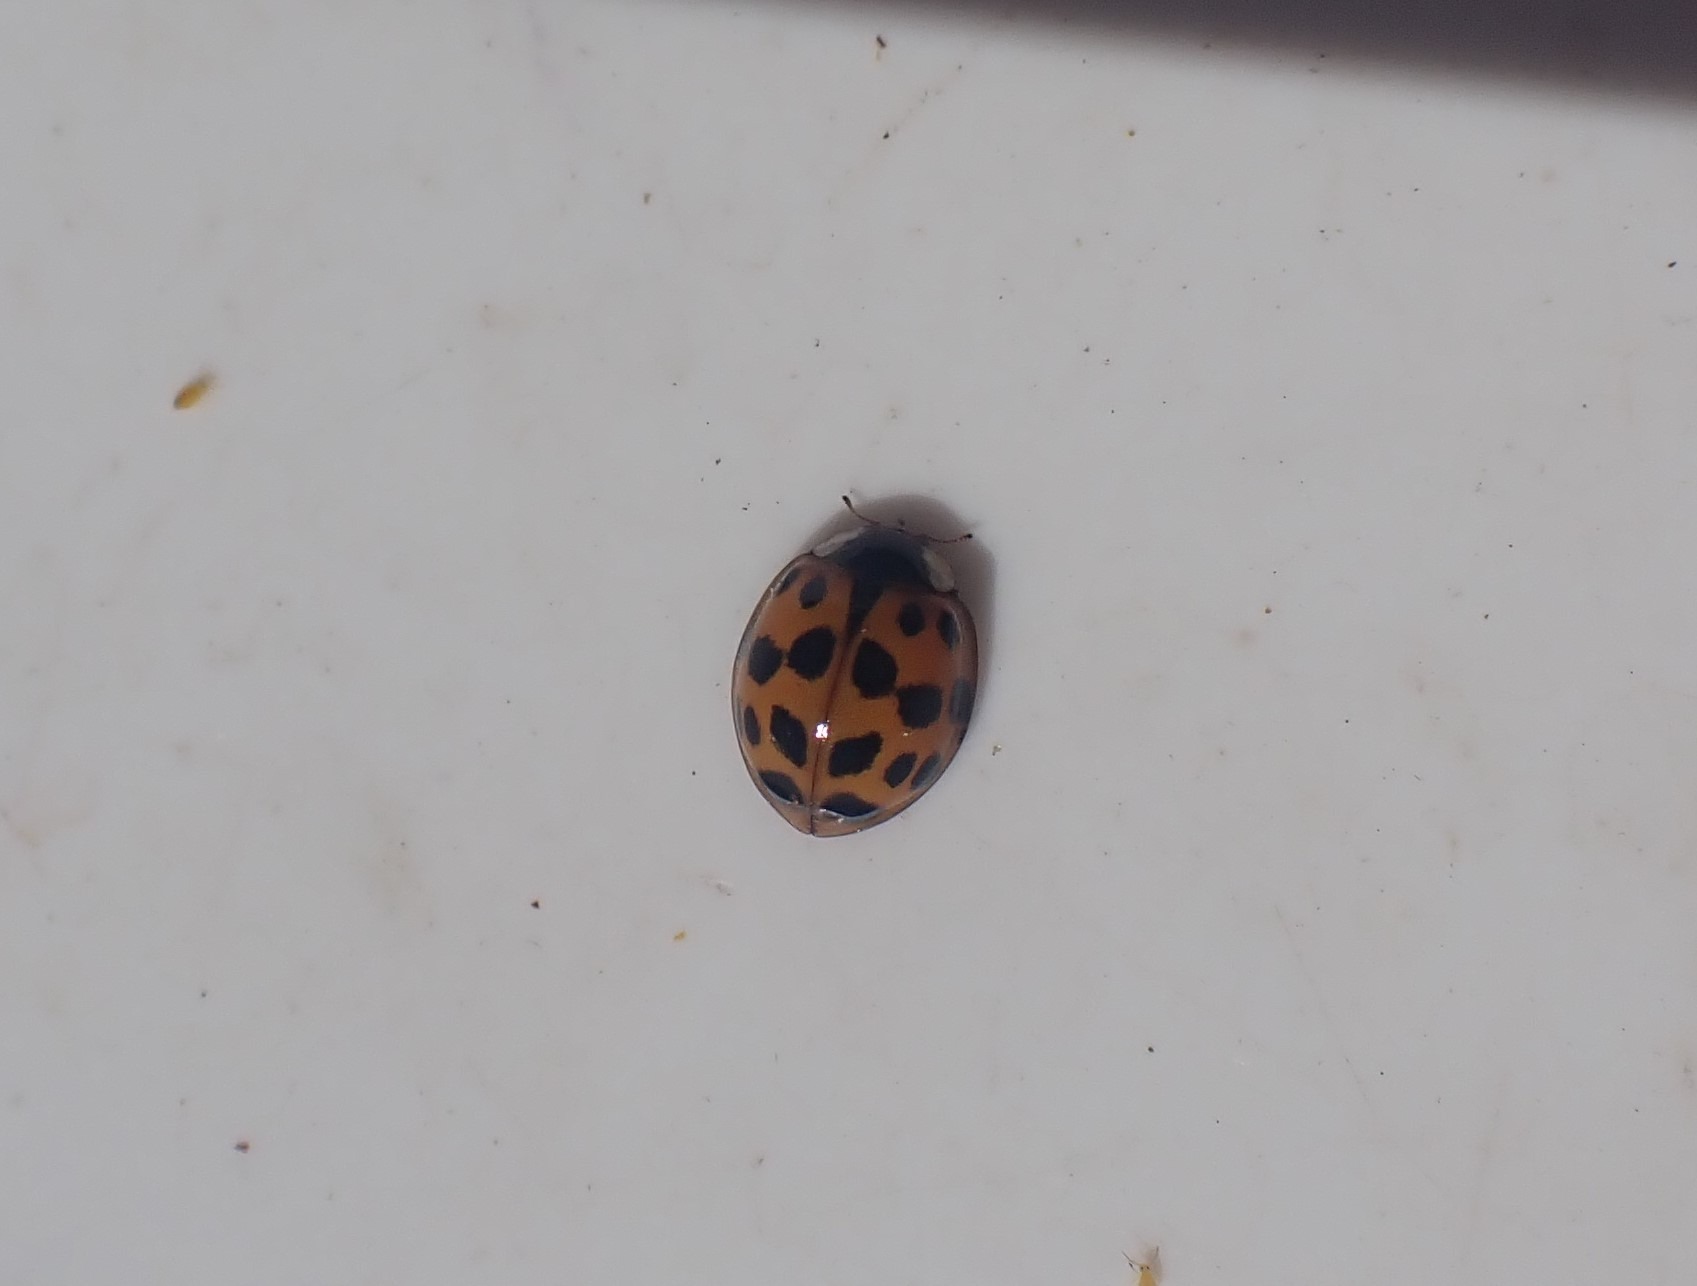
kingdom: Animalia
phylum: Arthropoda
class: Insecta
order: Coleoptera
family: Coccinellidae
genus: Harmonia
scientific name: Harmonia axyridis
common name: Harlekinmariehøne
